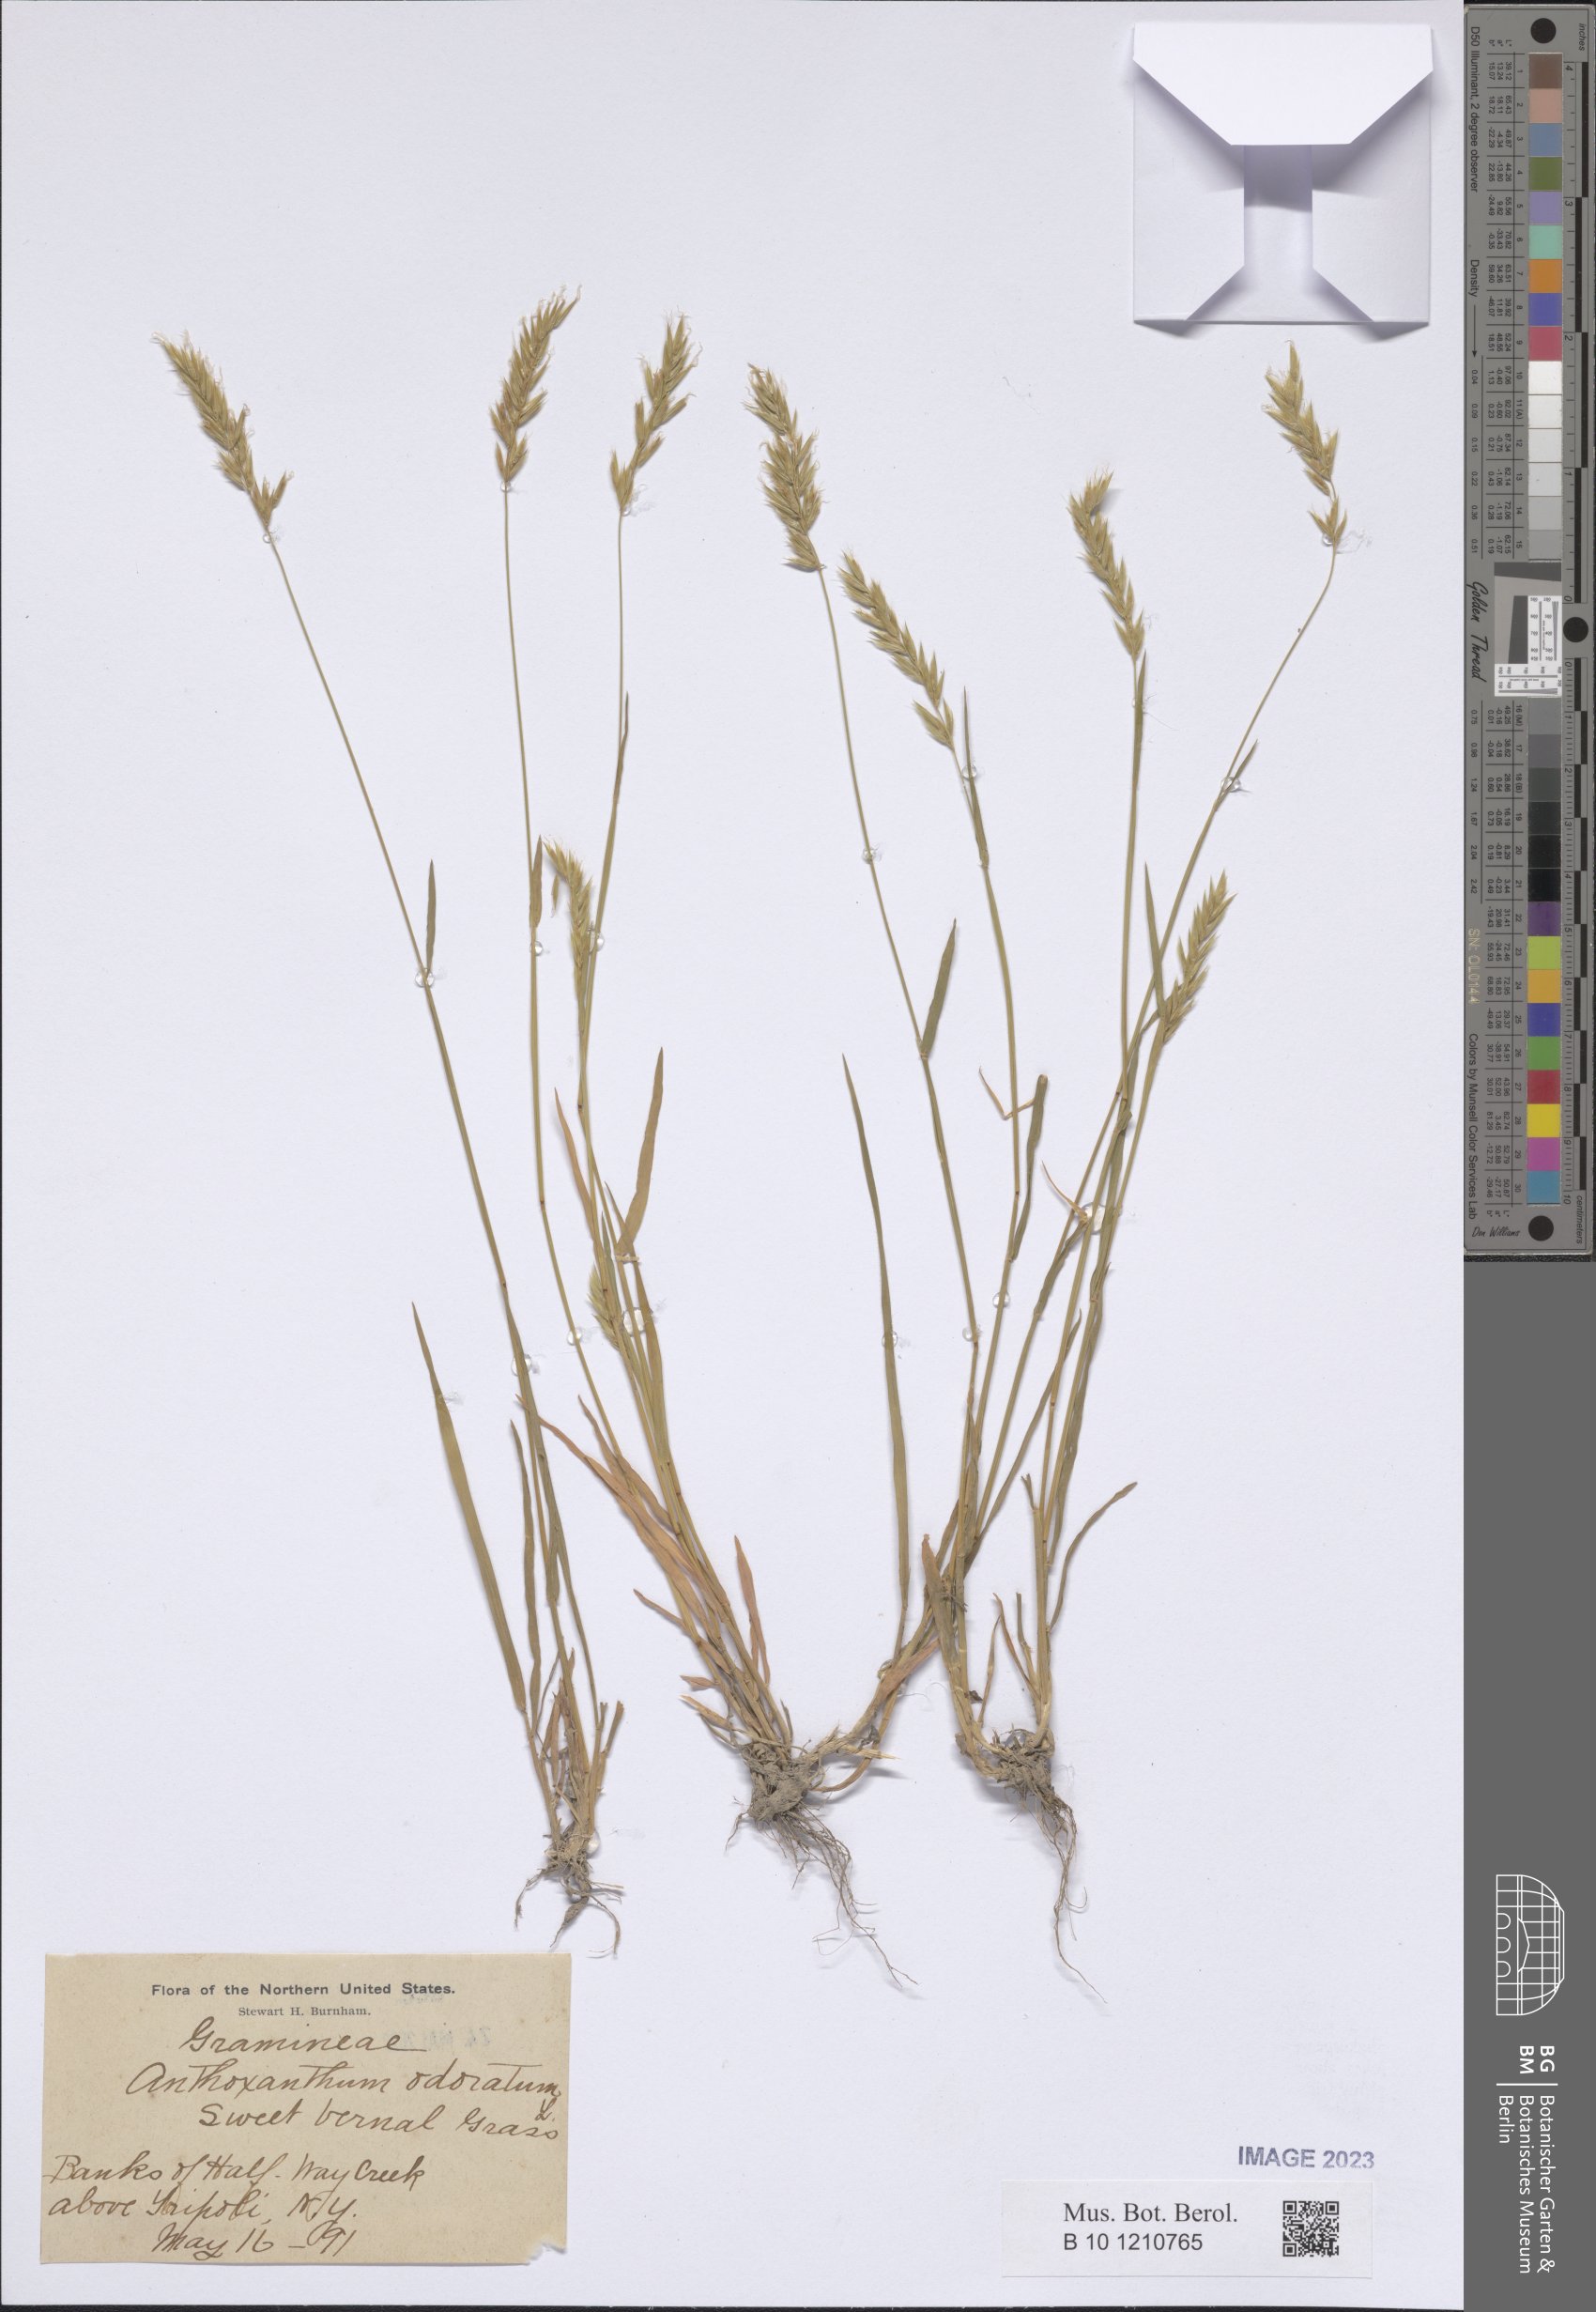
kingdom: Plantae
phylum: Tracheophyta
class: Liliopsida
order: Poales
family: Poaceae
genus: Anthoxanthum
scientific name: Anthoxanthum odoratum
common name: Sweet vernalgrass
